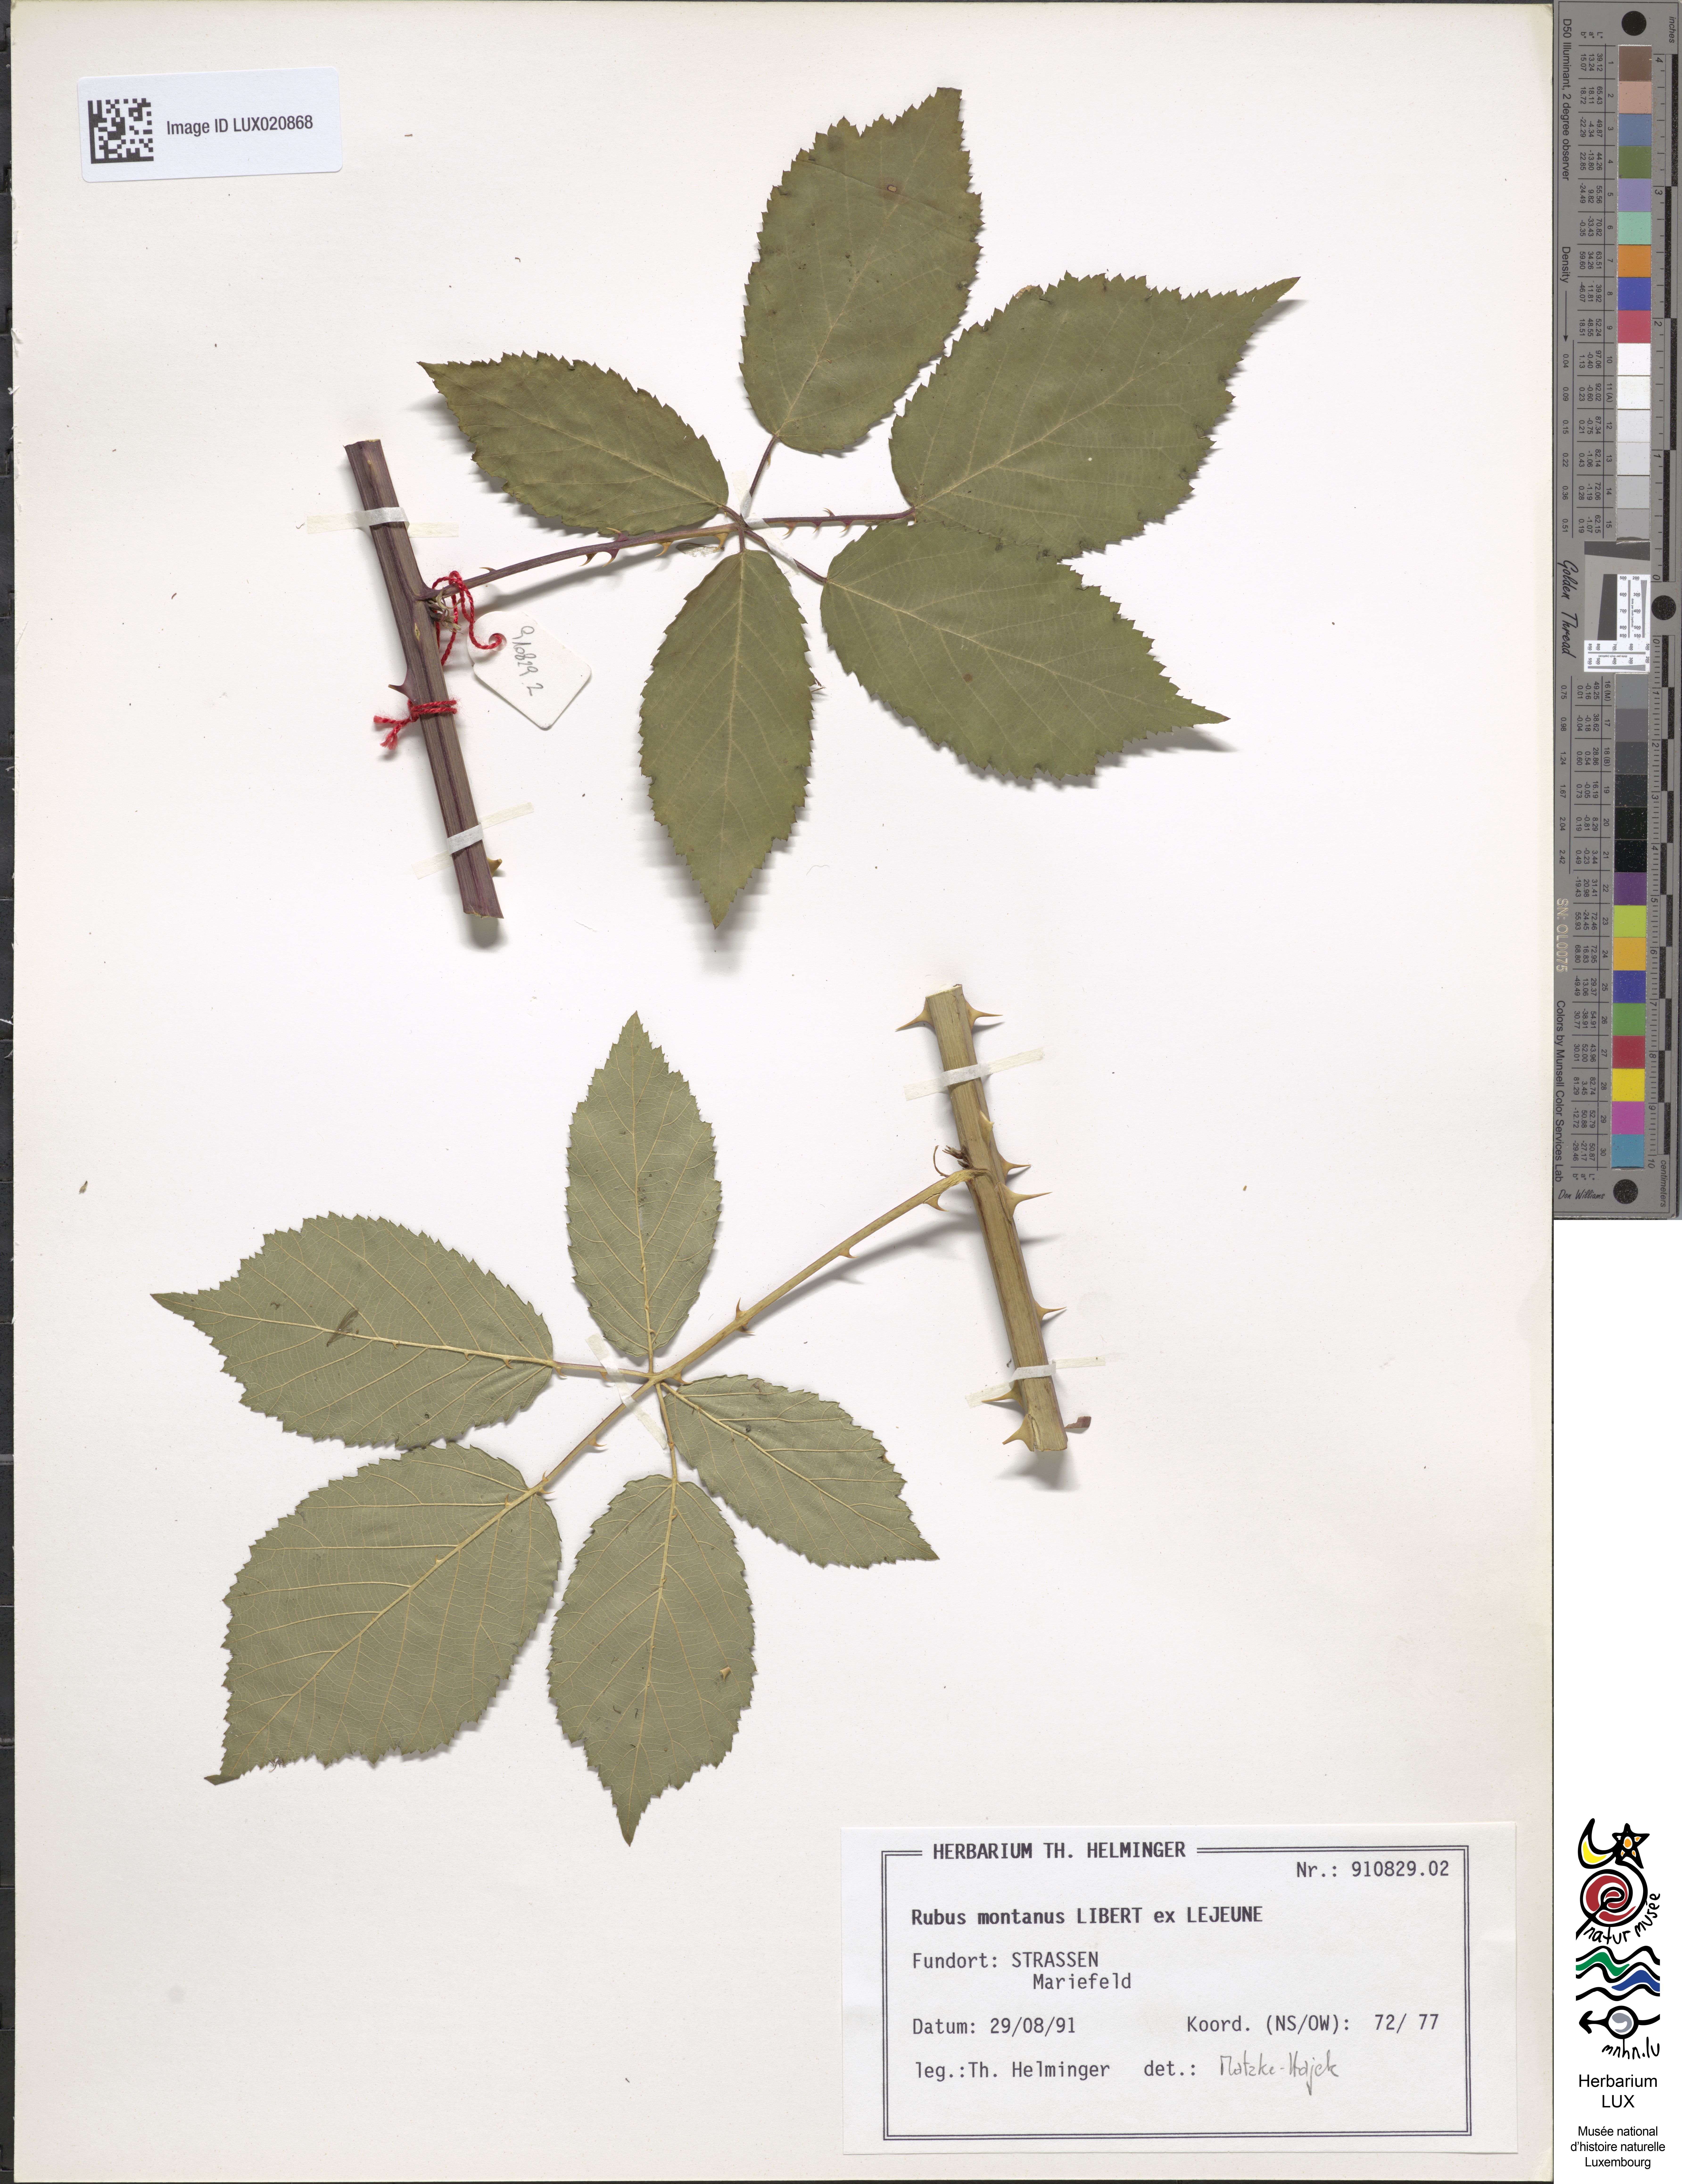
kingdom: Plantae
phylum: Tracheophyta
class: Magnoliopsida
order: Rosales
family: Rosaceae
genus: Rubus
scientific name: Rubus montanus
